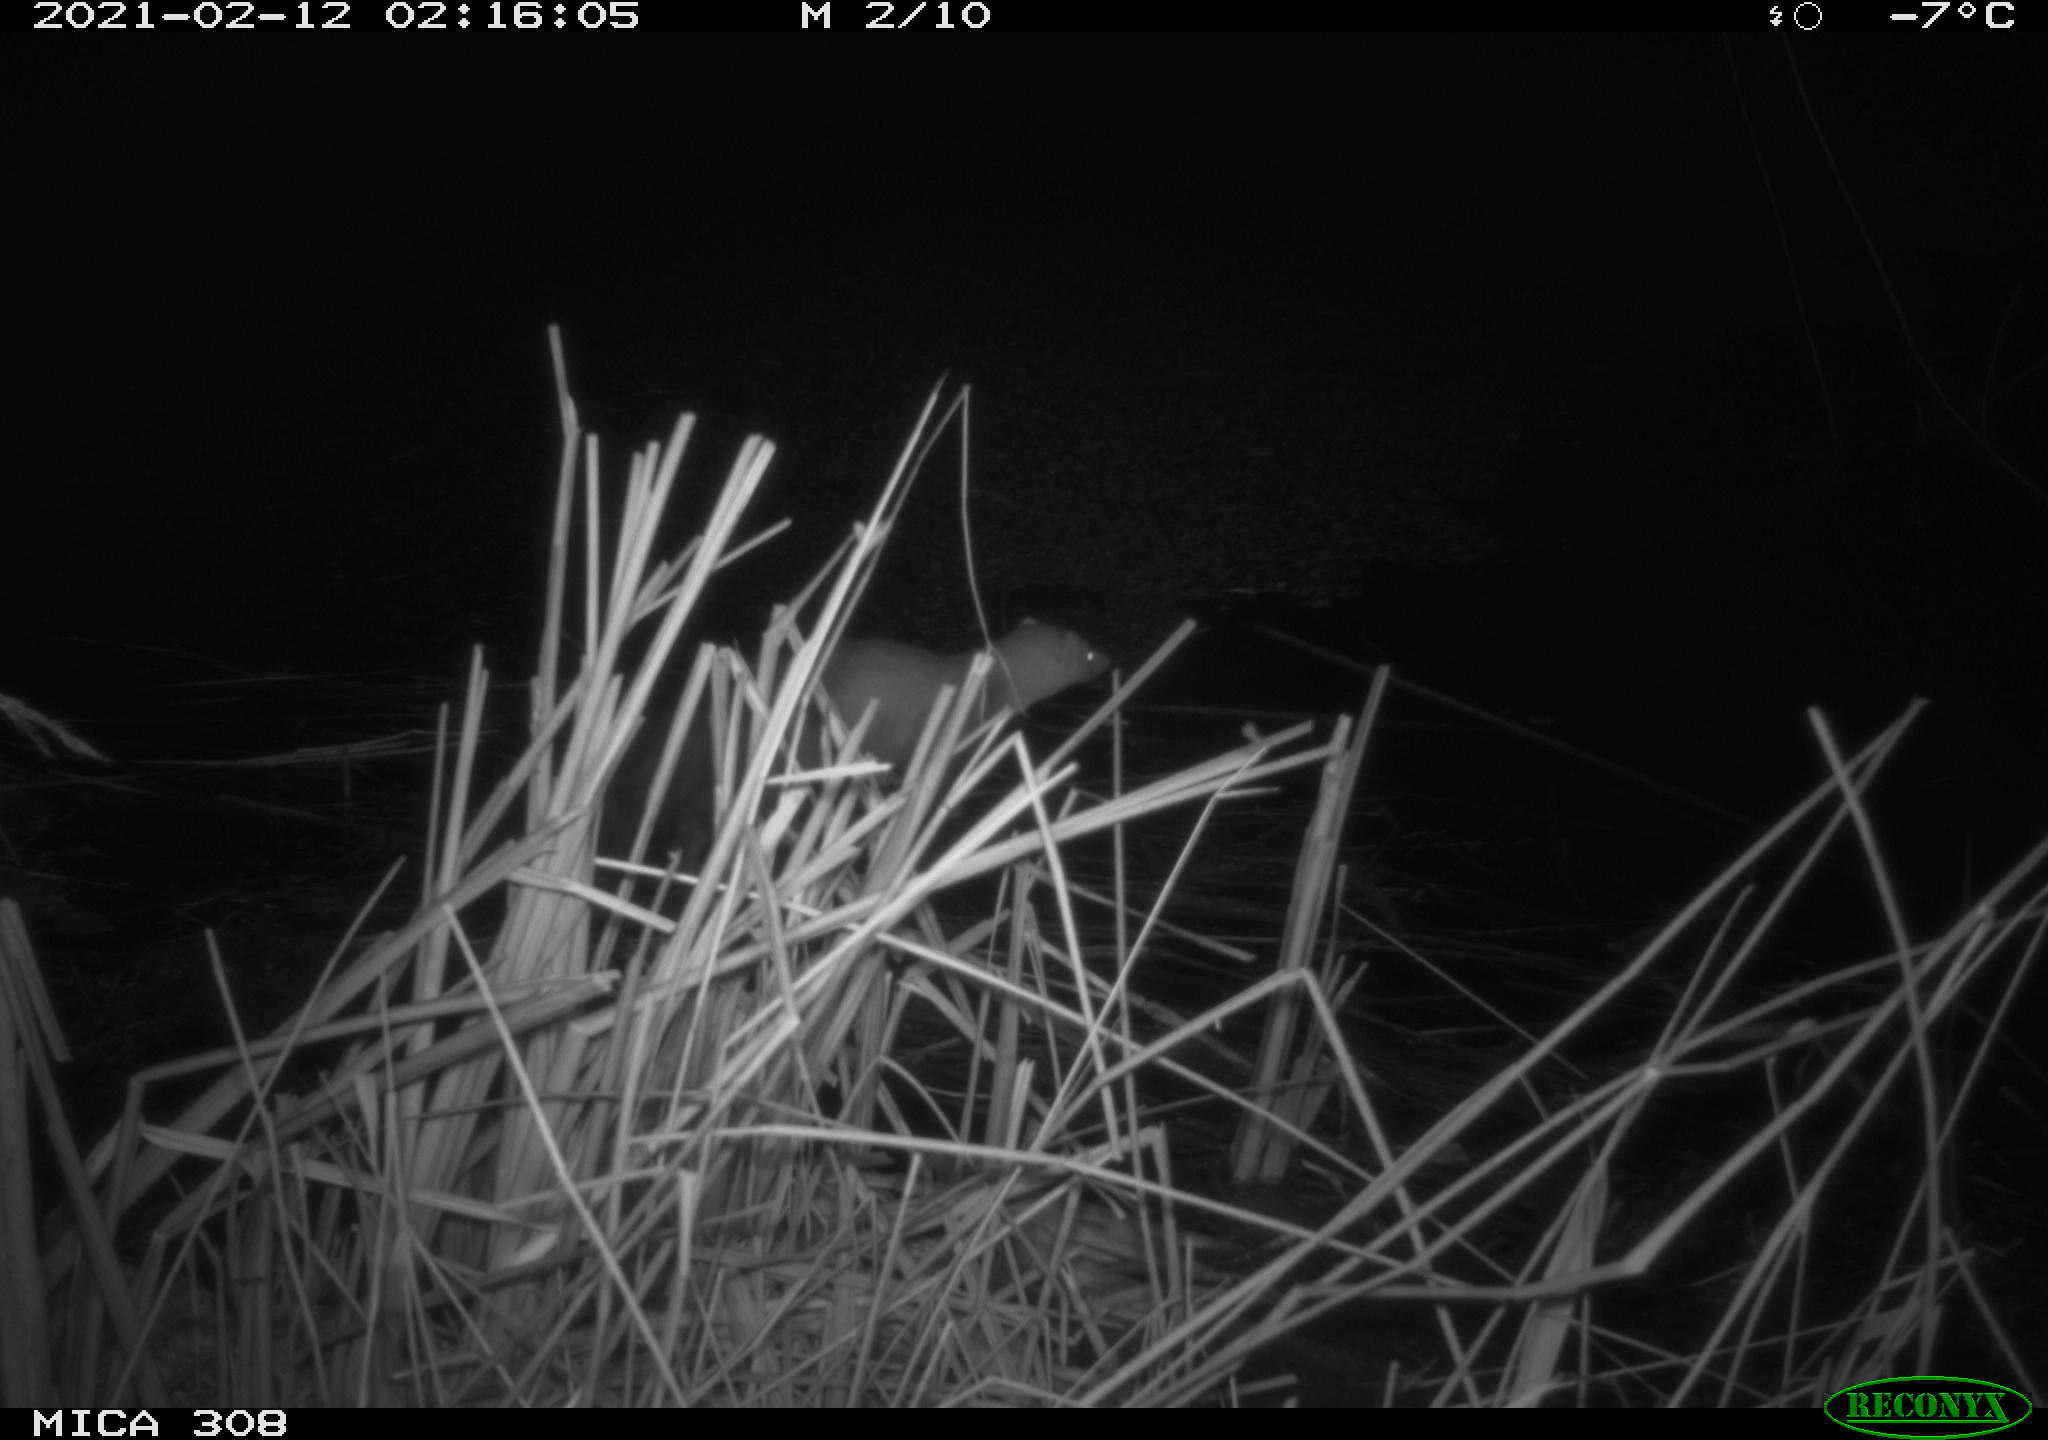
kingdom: Animalia
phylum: Chordata
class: Mammalia
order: Carnivora
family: Mustelidae
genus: Martes
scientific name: Martes foina
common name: Beech marten
